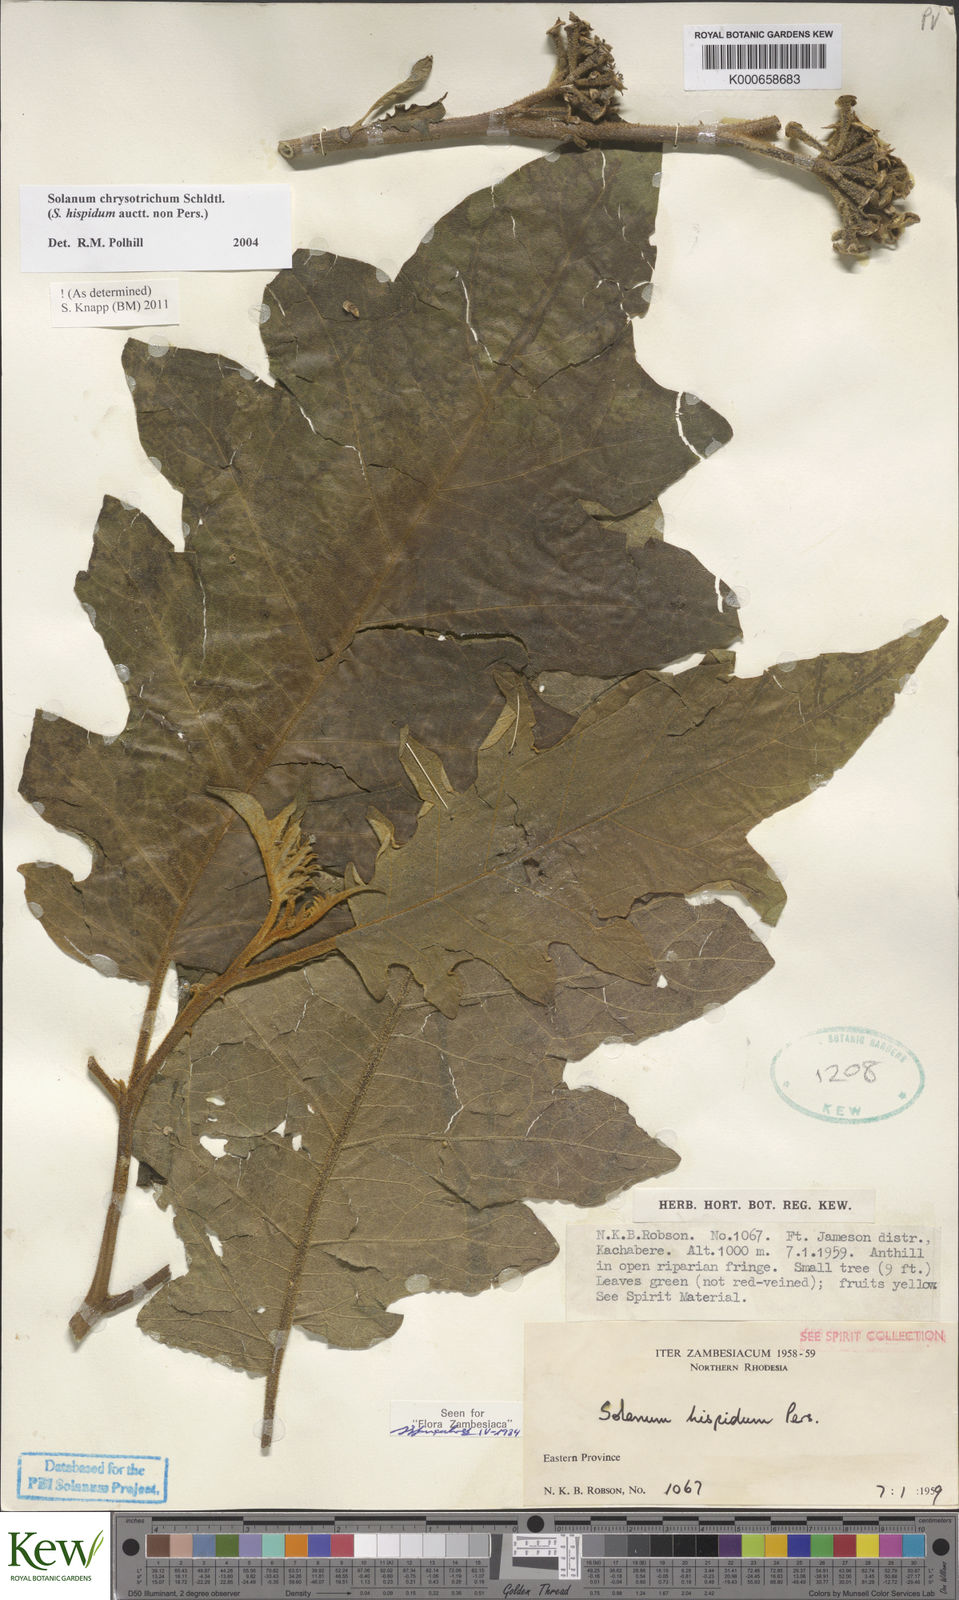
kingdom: Plantae
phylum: Tracheophyta
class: Magnoliopsida
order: Solanales
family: Solanaceae
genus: Solanum
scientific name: Solanum chrysotrichum
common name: Nightshade
